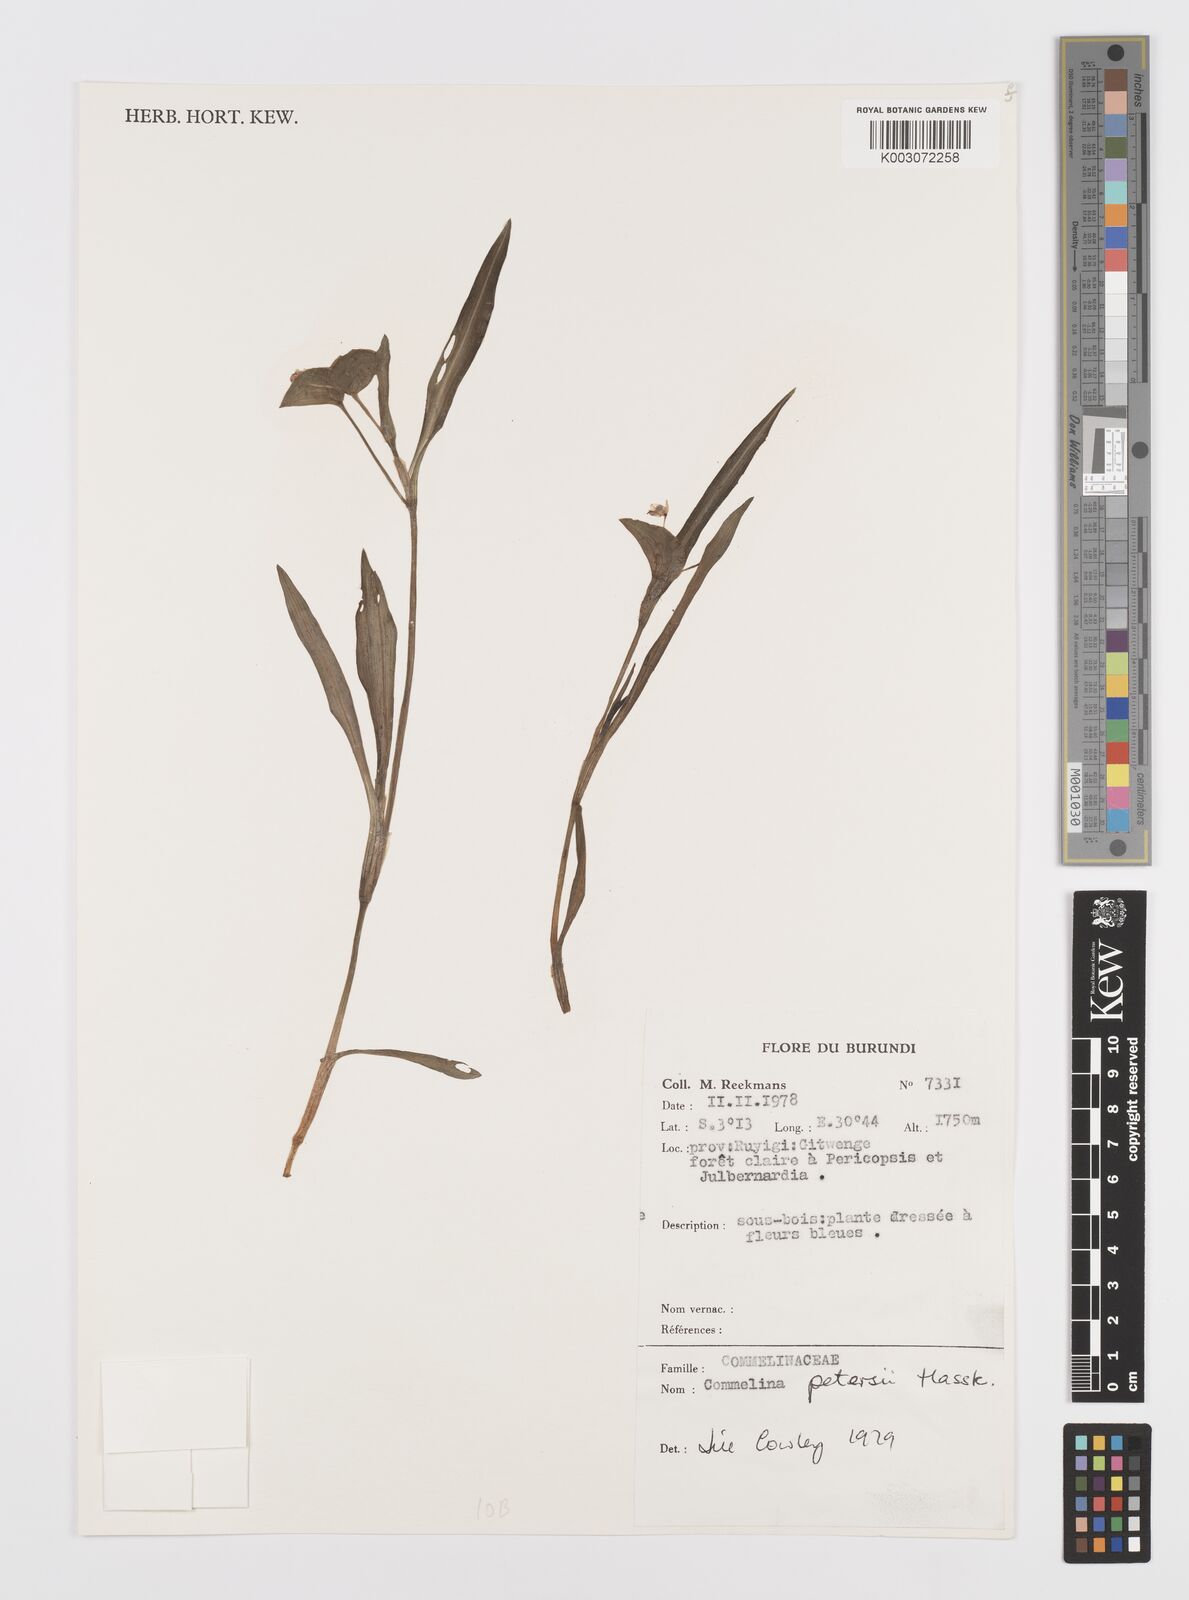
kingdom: Plantae
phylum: Tracheophyta
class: Liliopsida
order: Commelinales
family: Commelinaceae
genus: Commelina
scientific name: Commelina petersii
